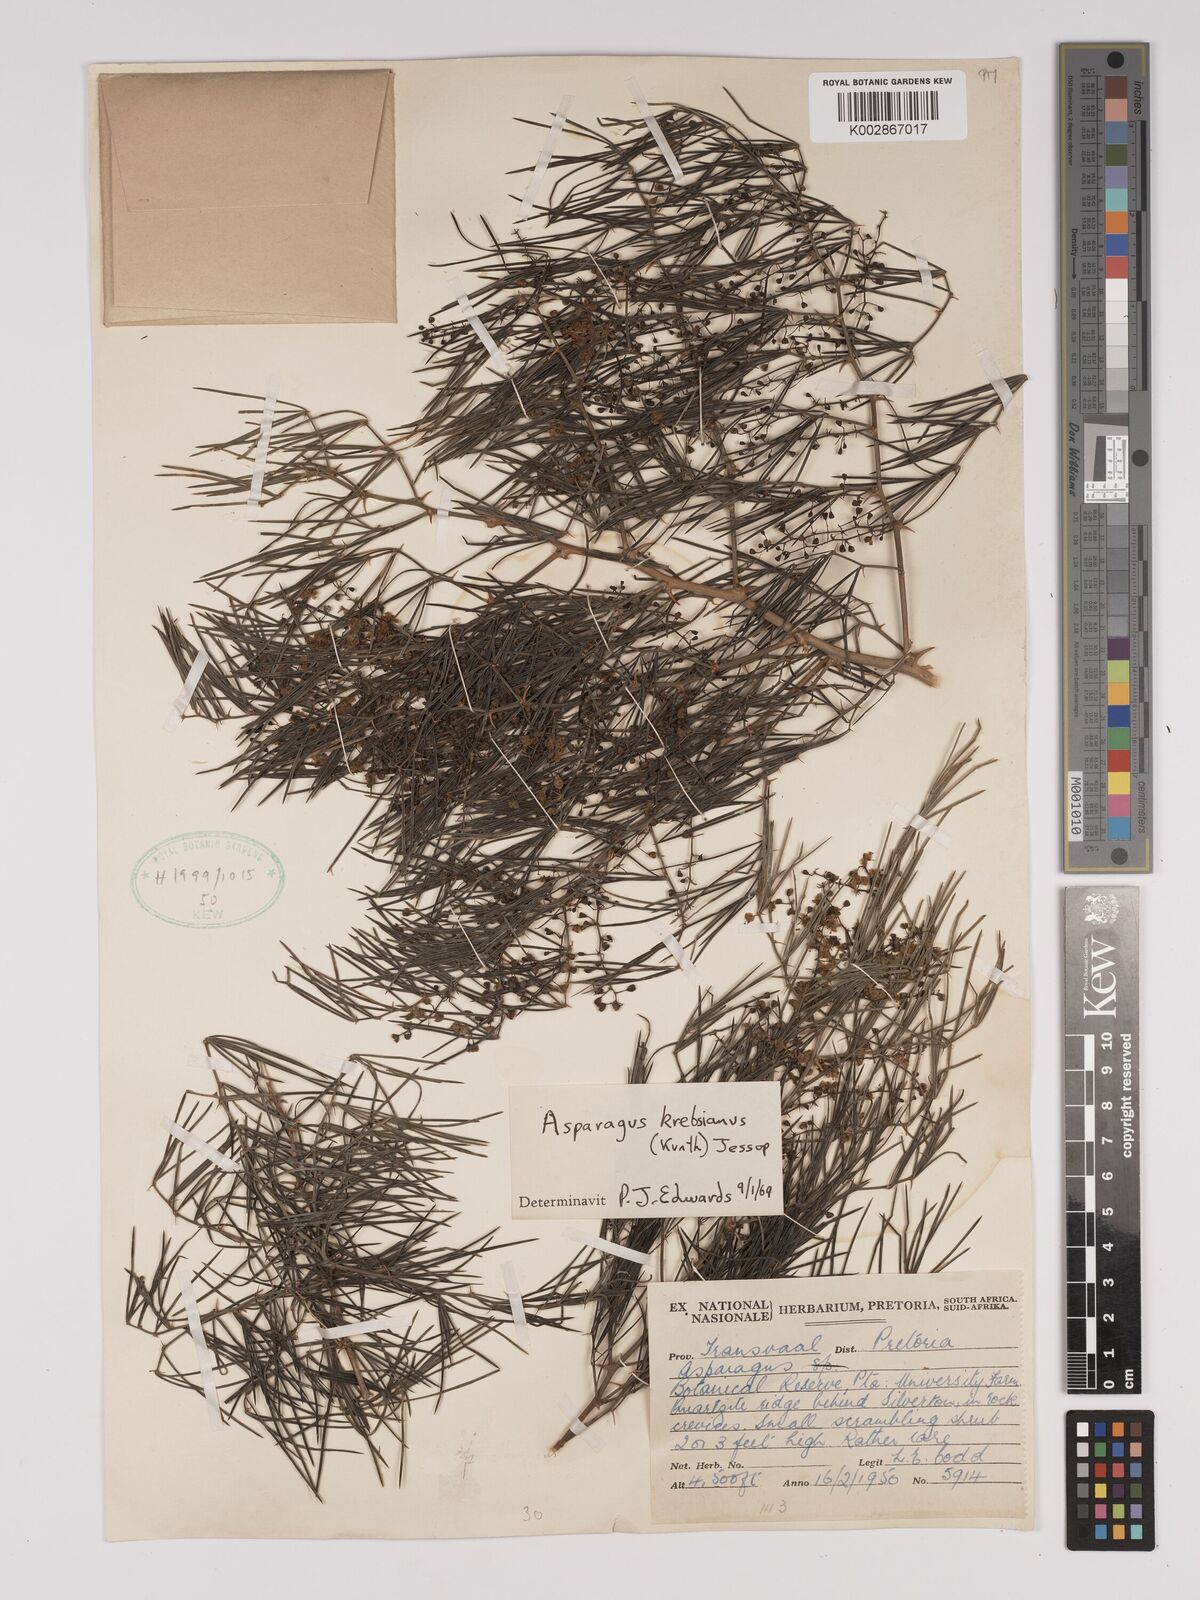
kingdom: Plantae
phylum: Tracheophyta
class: Liliopsida
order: Asparagales
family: Asparagaceae
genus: Asparagus
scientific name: Asparagus krebsianus
